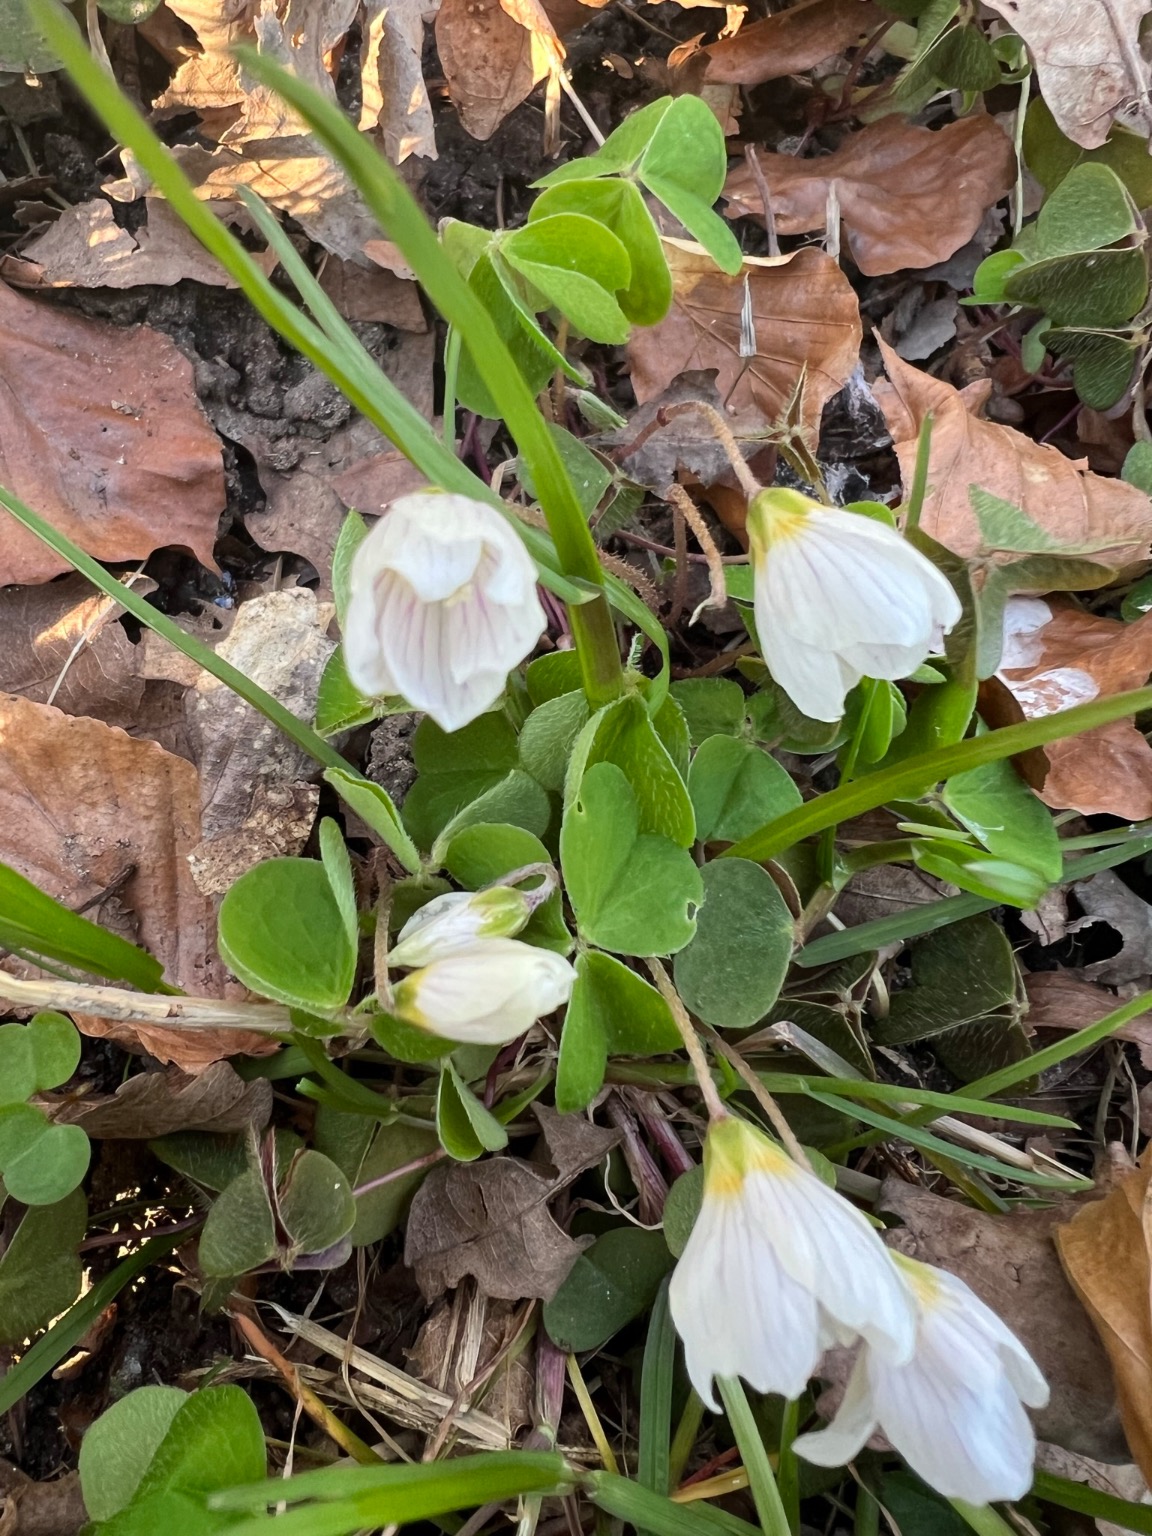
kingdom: Plantae
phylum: Tracheophyta
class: Magnoliopsida
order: Oxalidales
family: Oxalidaceae
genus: Oxalis
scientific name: Oxalis acetosella
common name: Skovsyre
